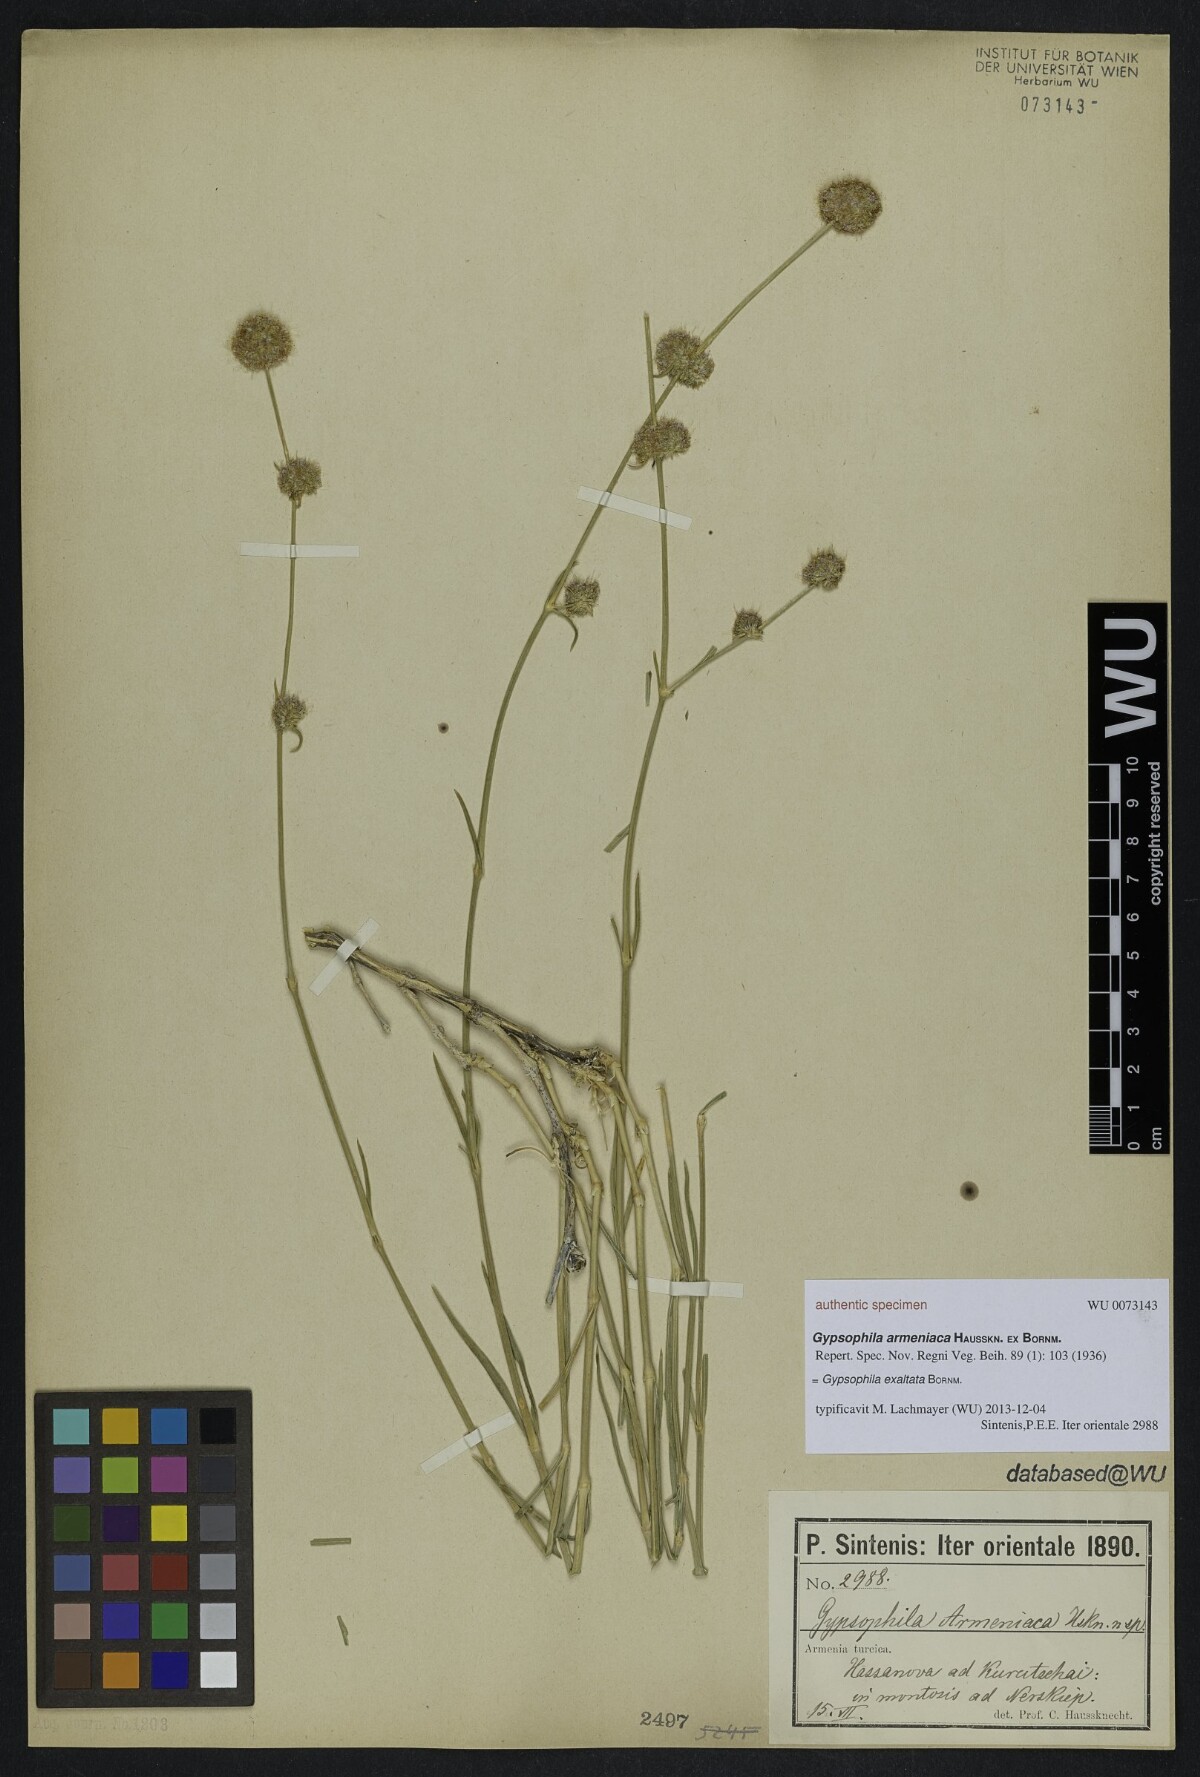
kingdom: Plantae
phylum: Tracheophyta
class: Magnoliopsida
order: Caryophyllales
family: Caryophyllaceae
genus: Gypsophila
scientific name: Gypsophila armeniaca
